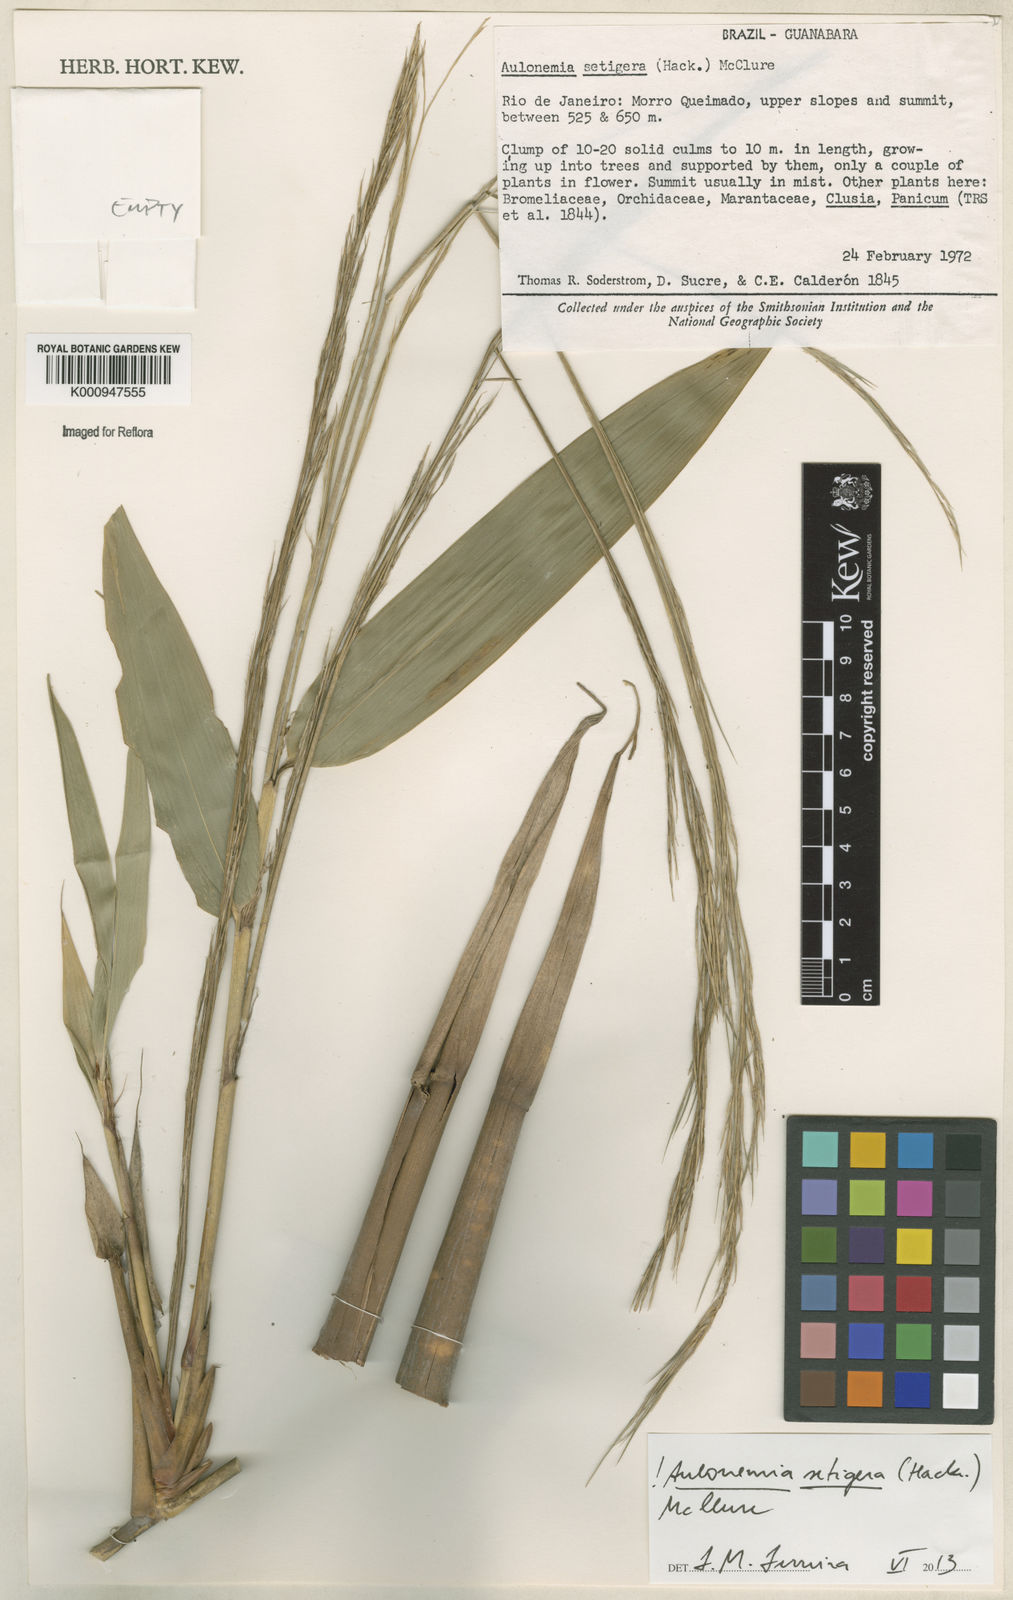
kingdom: Plantae
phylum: Tracheophyta
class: Liliopsida
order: Poales
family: Poaceae
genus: Aulonemia
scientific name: Aulonemia setigera
